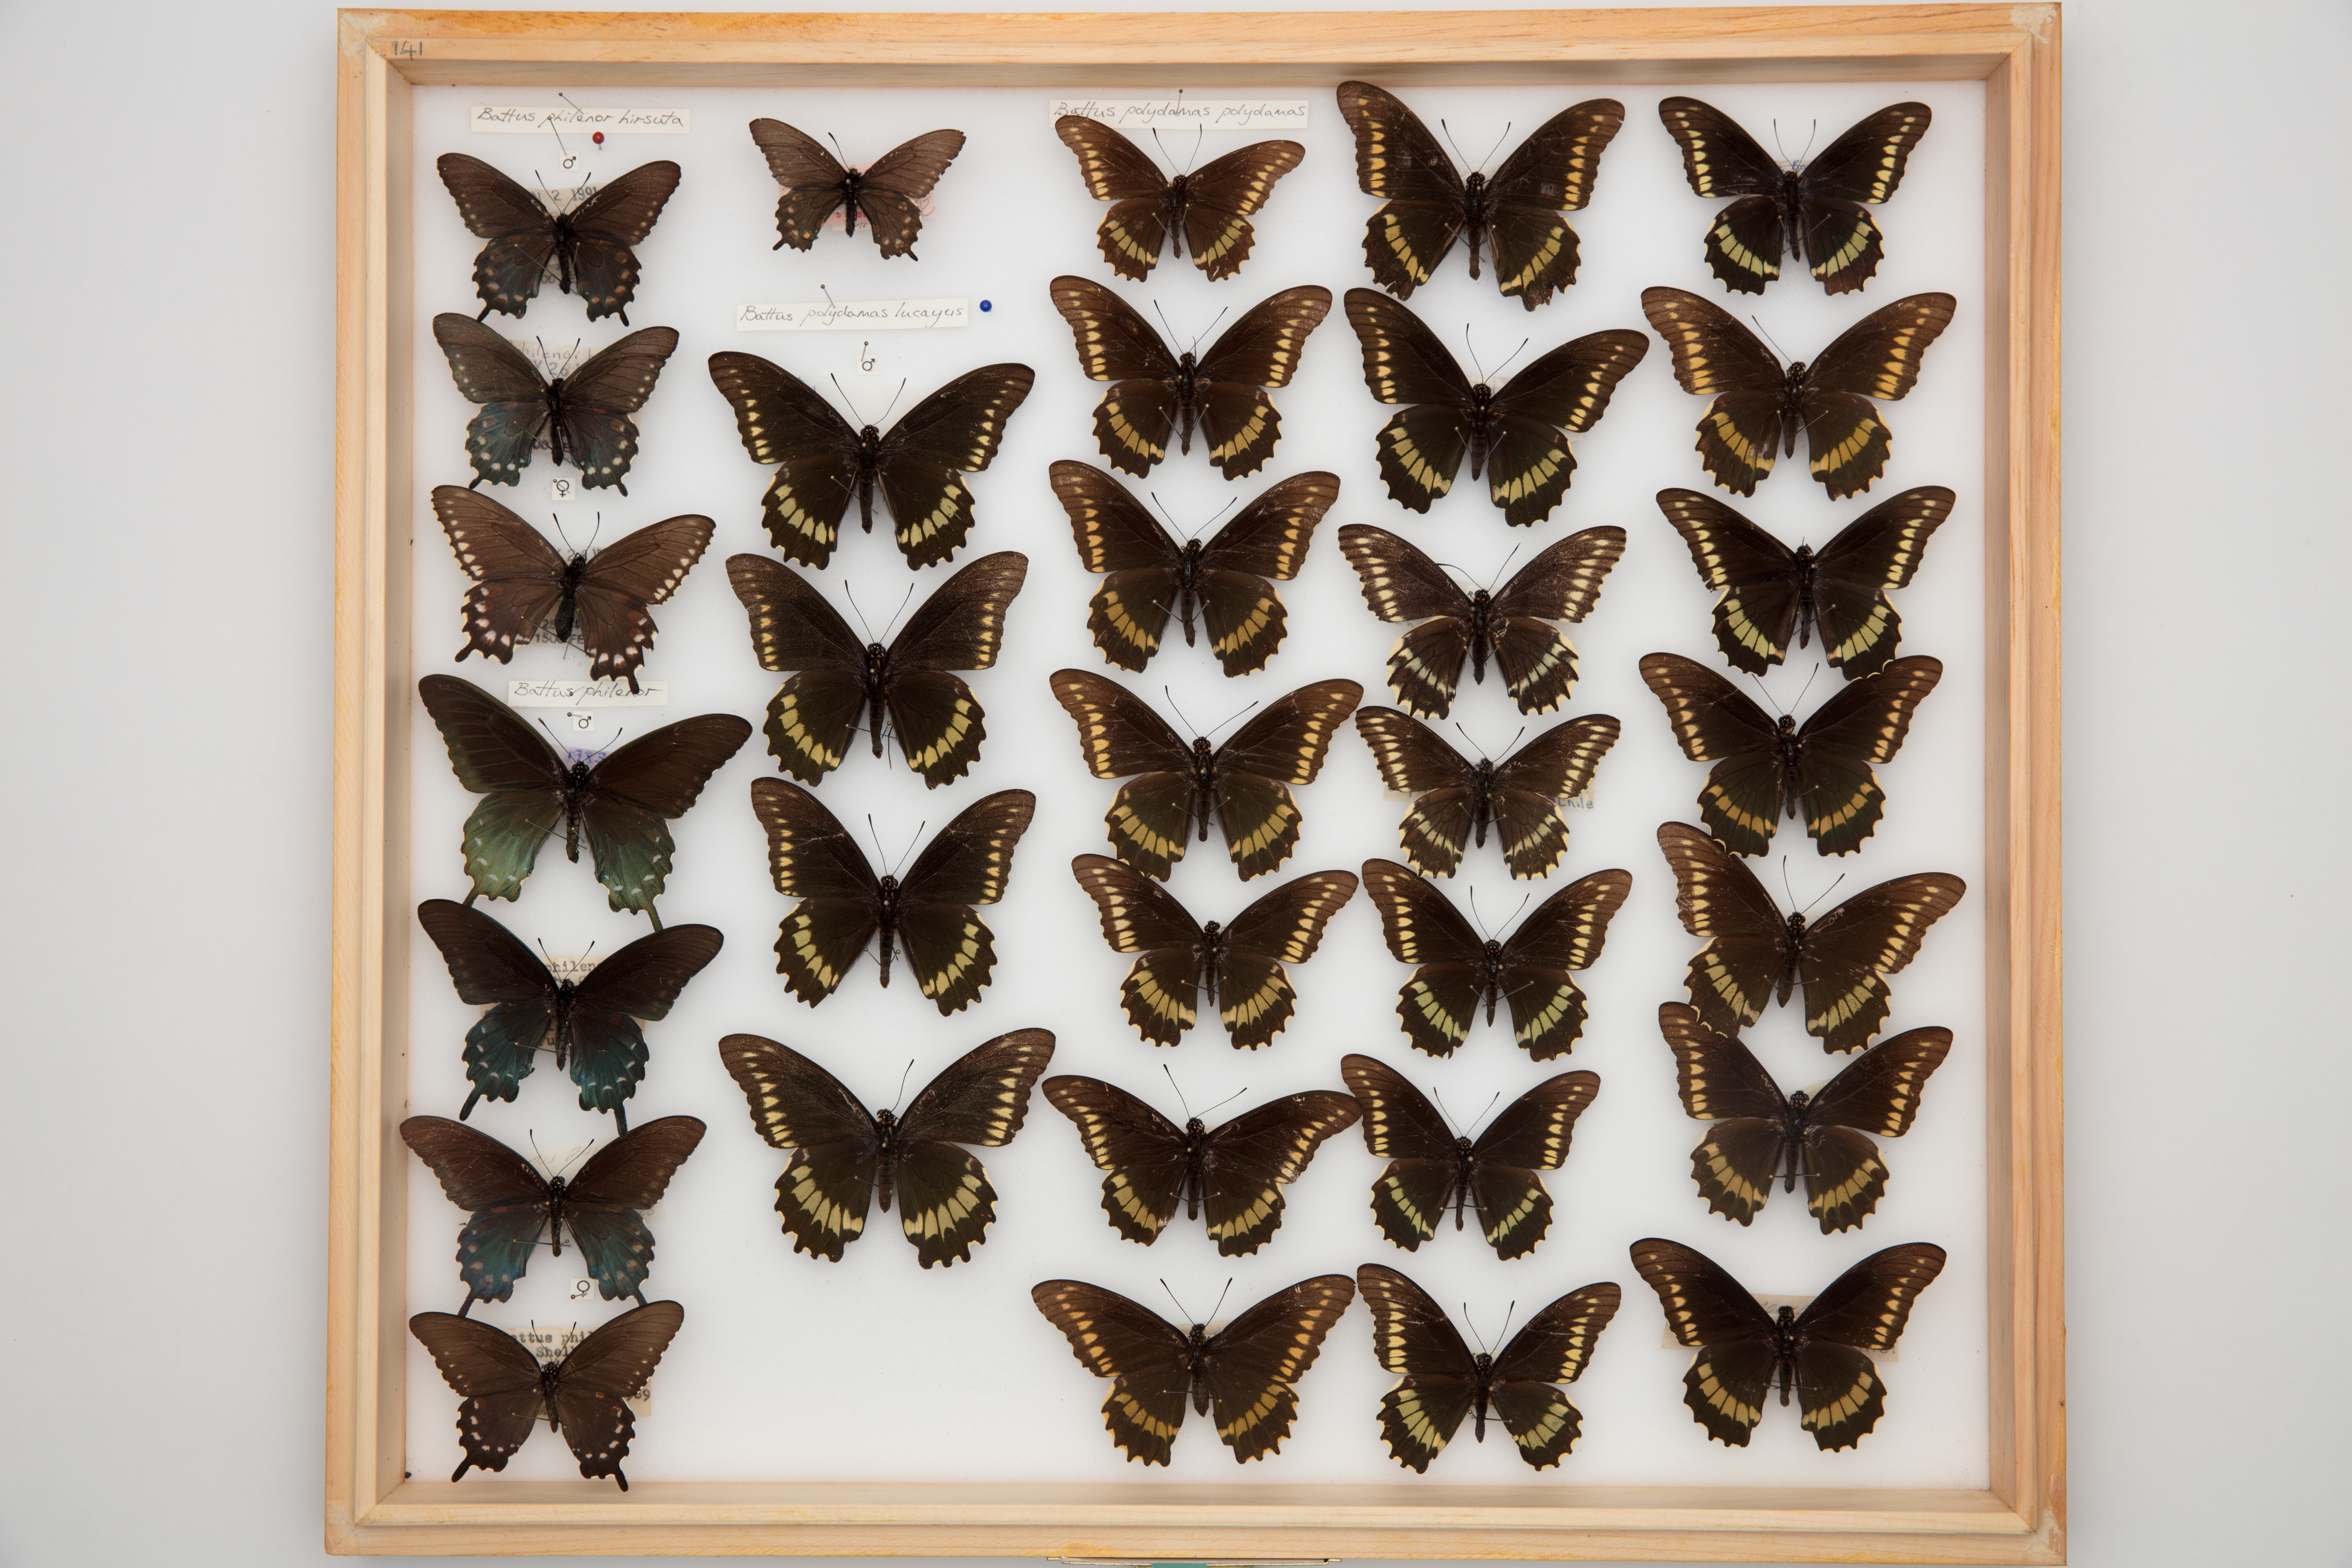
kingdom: Animalia
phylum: Arthropoda
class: Insecta
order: Lepidoptera
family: Papilionidae
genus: Battus
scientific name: Battus polydamas
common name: Polydamas swallowtail
